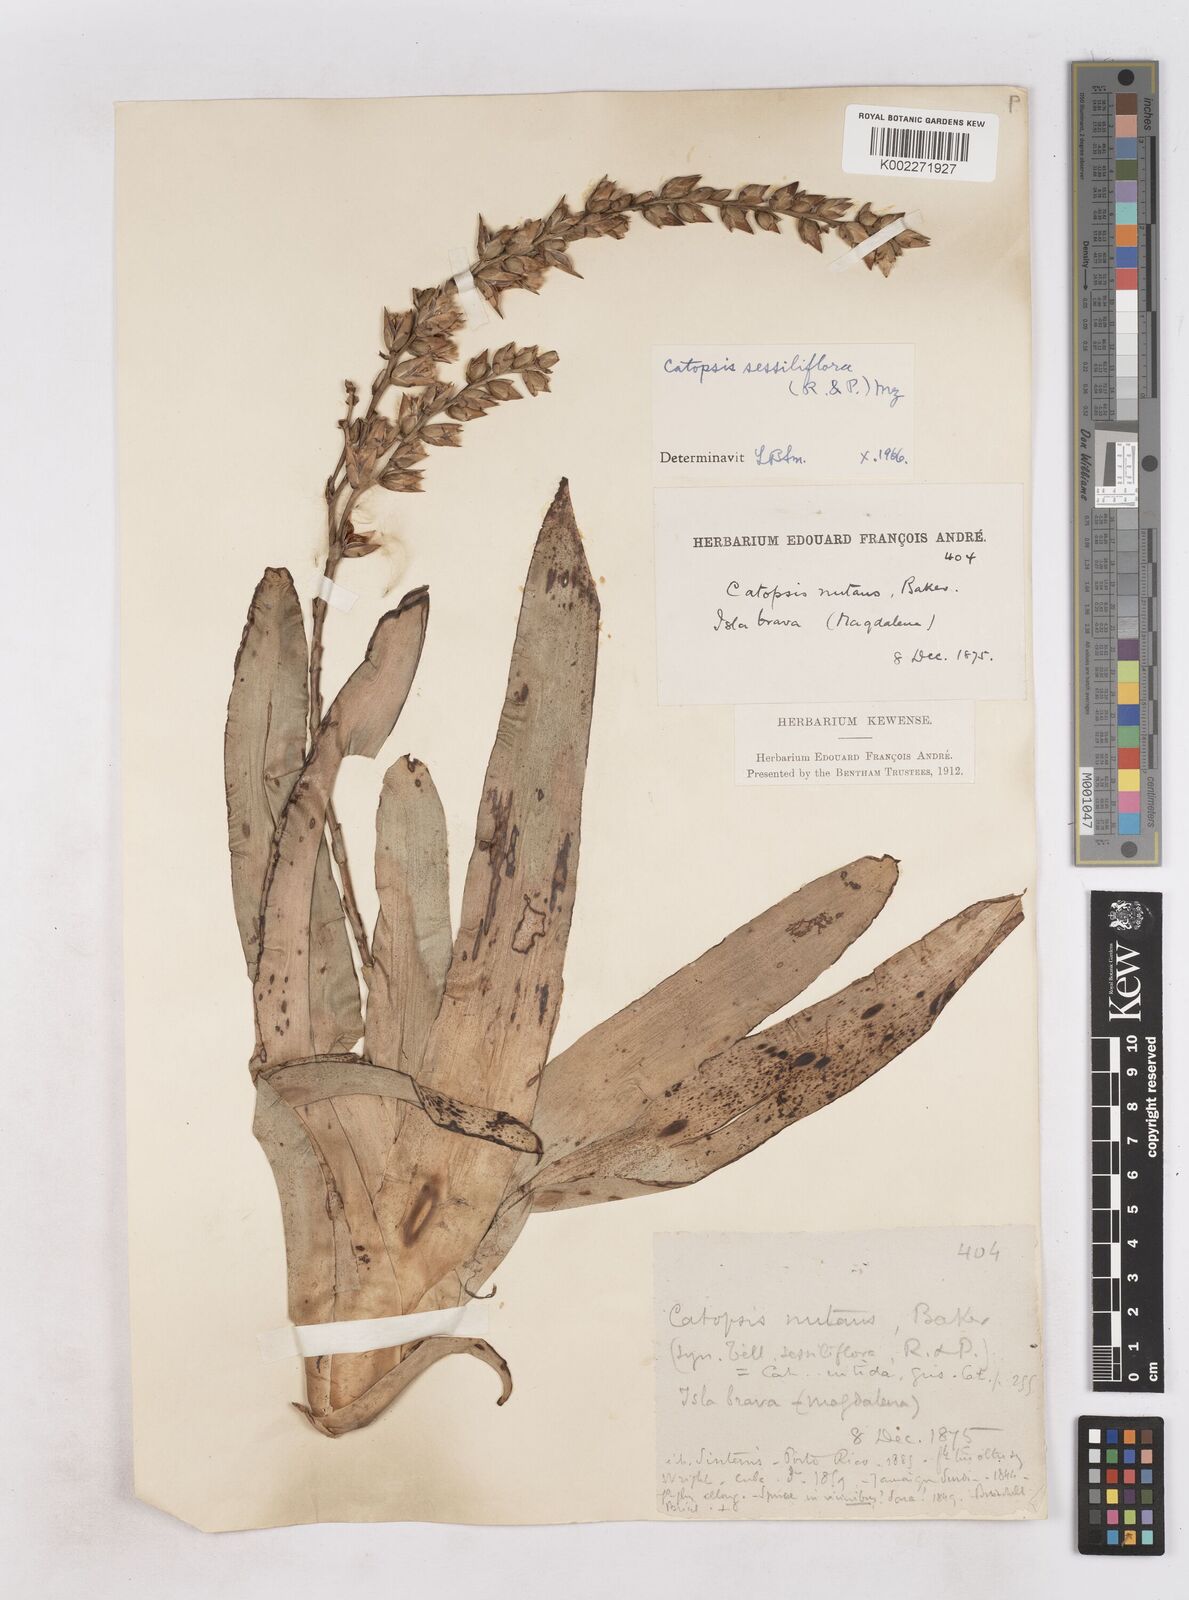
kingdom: Plantae
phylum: Tracheophyta
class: Liliopsida
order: Poales
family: Bromeliaceae
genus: Catopsis
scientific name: Catopsis sessiliflora
